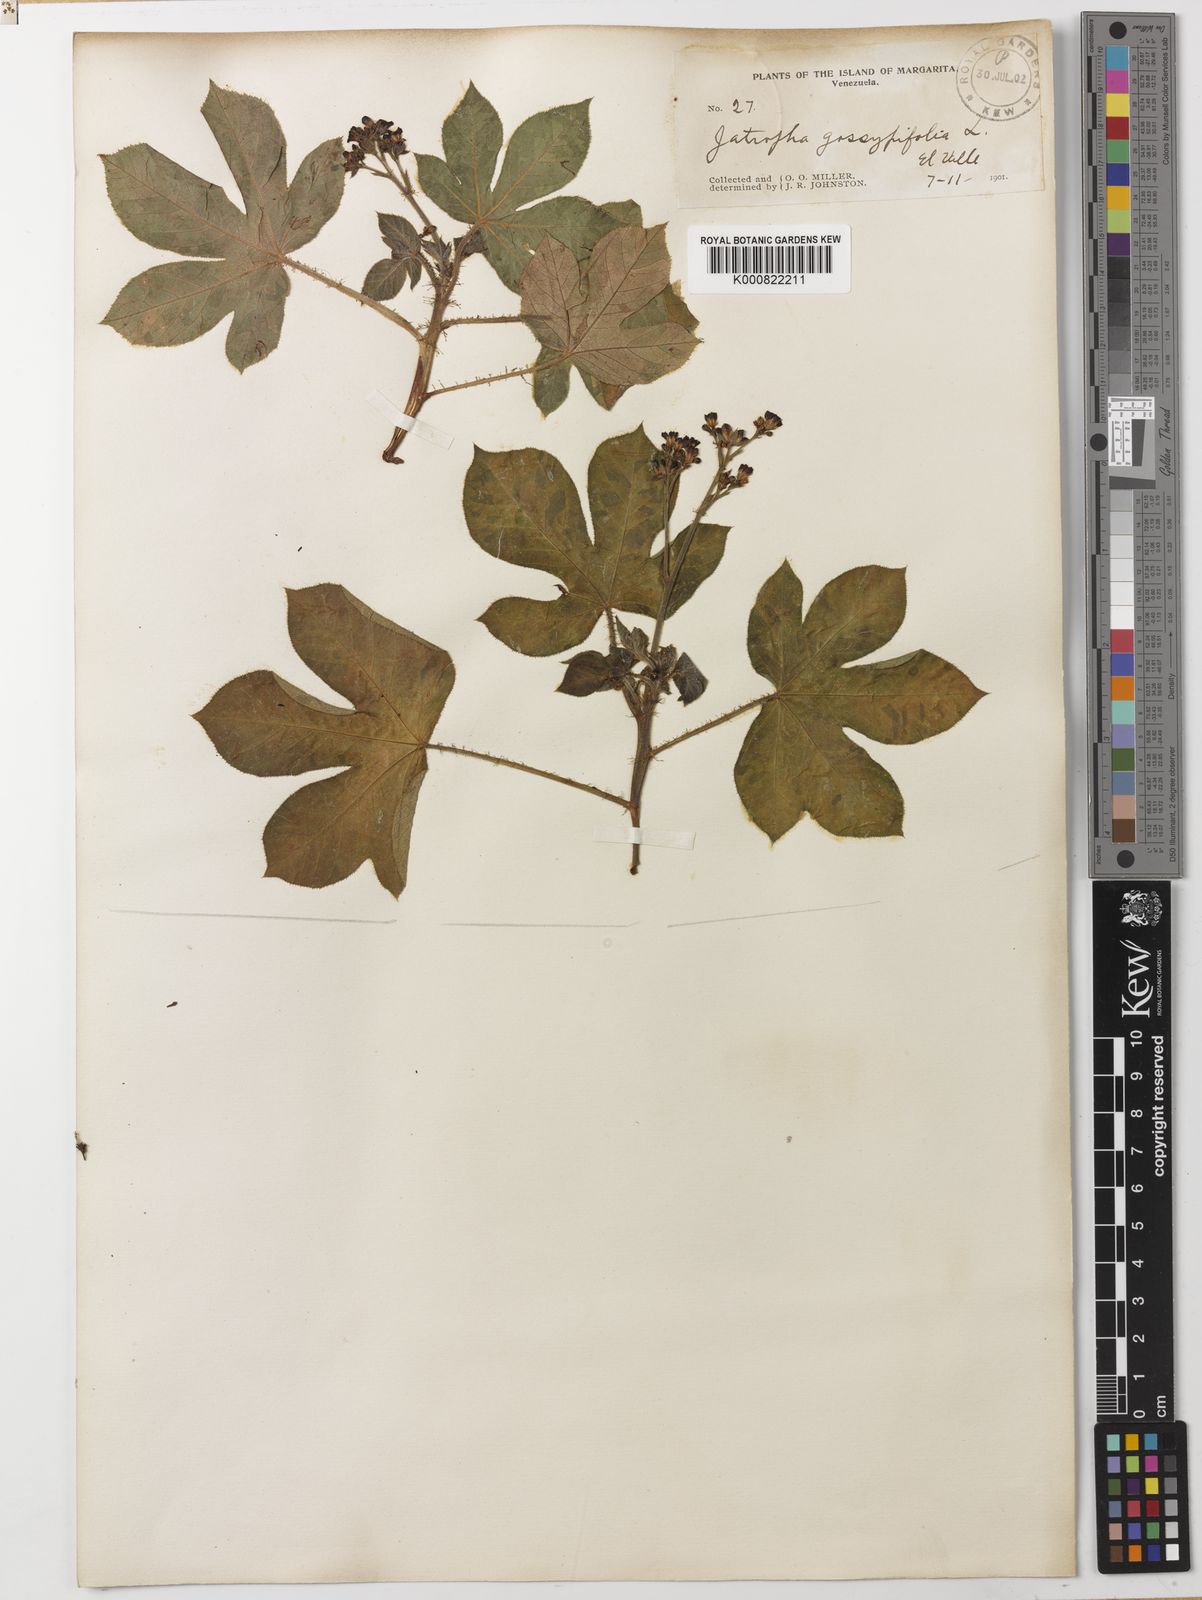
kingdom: Plantae
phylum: Tracheophyta
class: Magnoliopsida
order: Malpighiales
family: Euphorbiaceae
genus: Jatropha
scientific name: Jatropha gossypiifolia
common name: Bellyache bush
